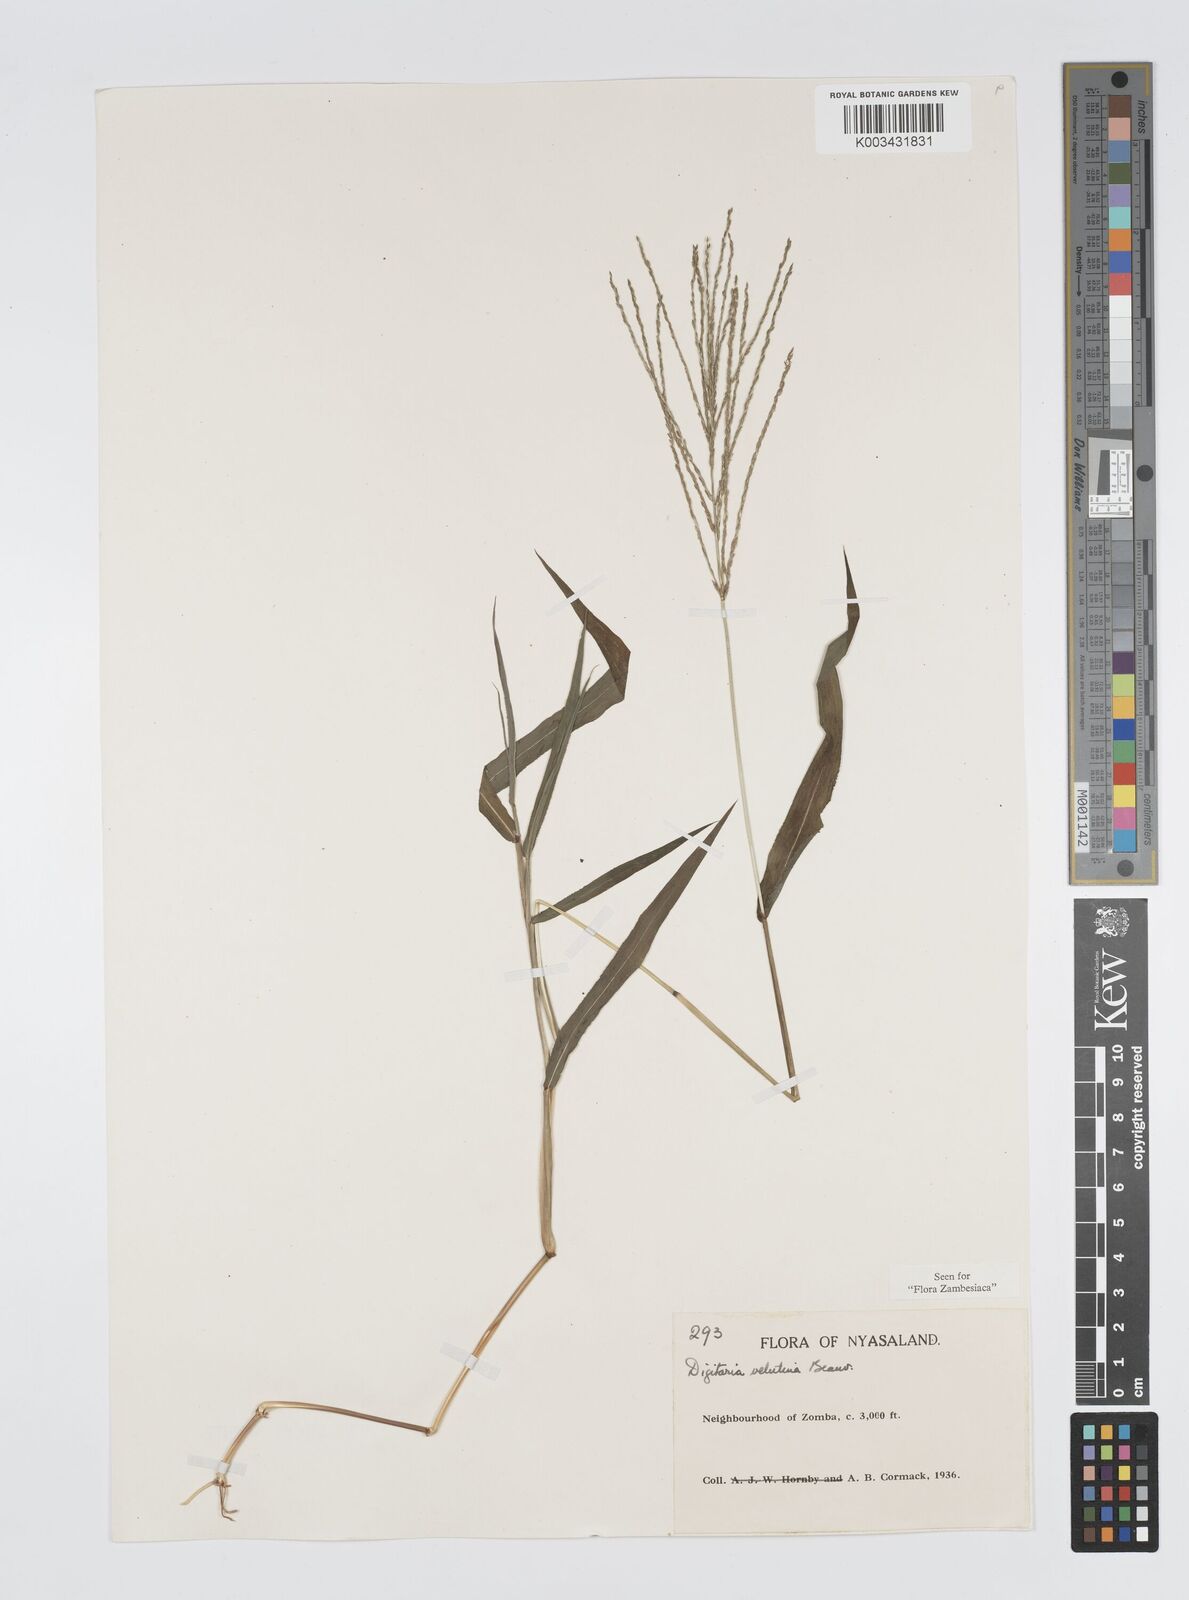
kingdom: Plantae
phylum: Tracheophyta
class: Liliopsida
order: Poales
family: Poaceae
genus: Digitaria
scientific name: Digitaria velutina
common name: Long-plume finger grass
